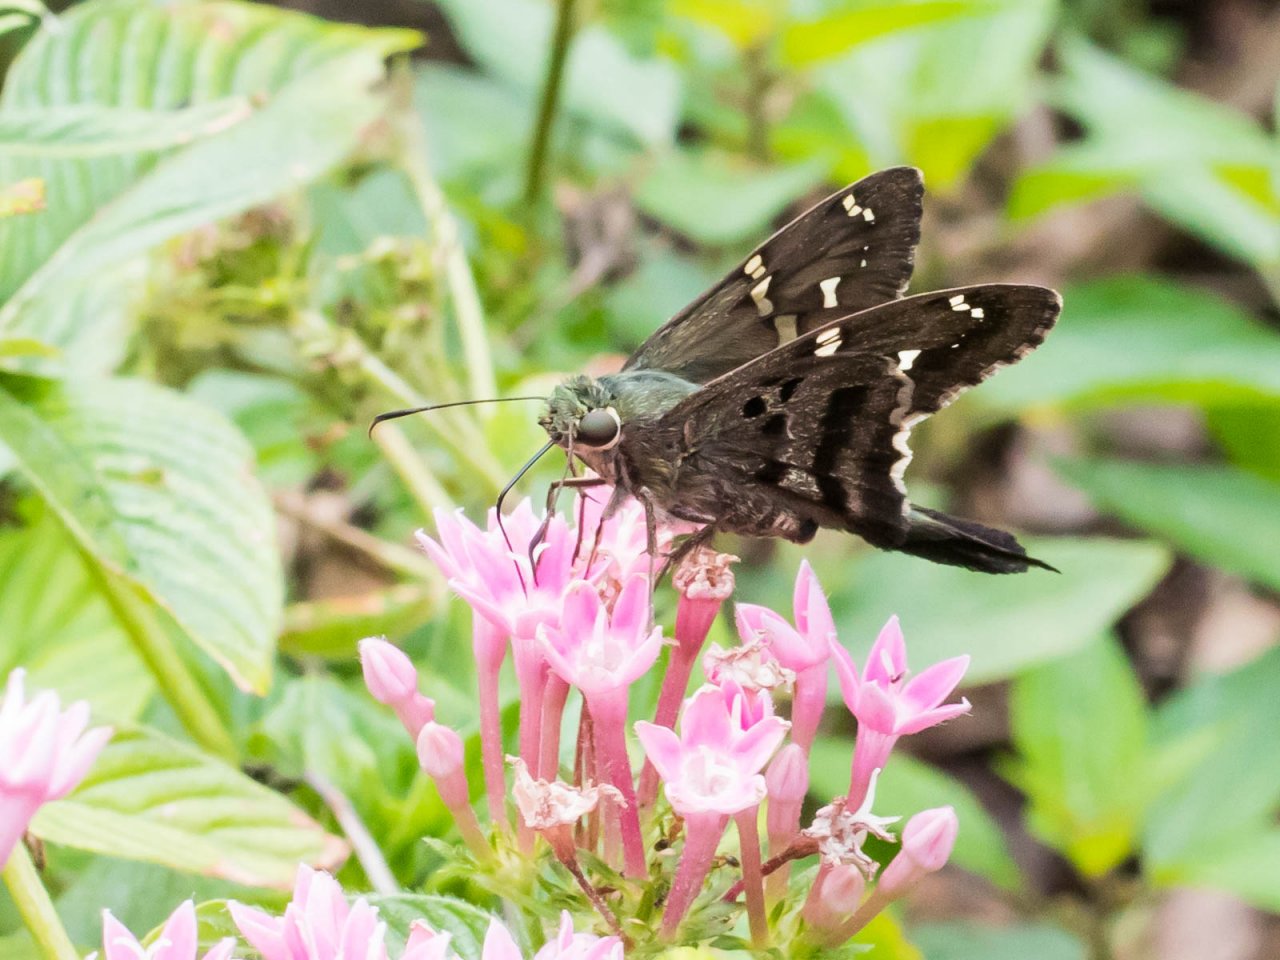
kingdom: Animalia
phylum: Arthropoda
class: Insecta
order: Lepidoptera
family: Hesperiidae
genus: Urbanus
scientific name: Urbanus proteus
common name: Long-tailed Skipper
